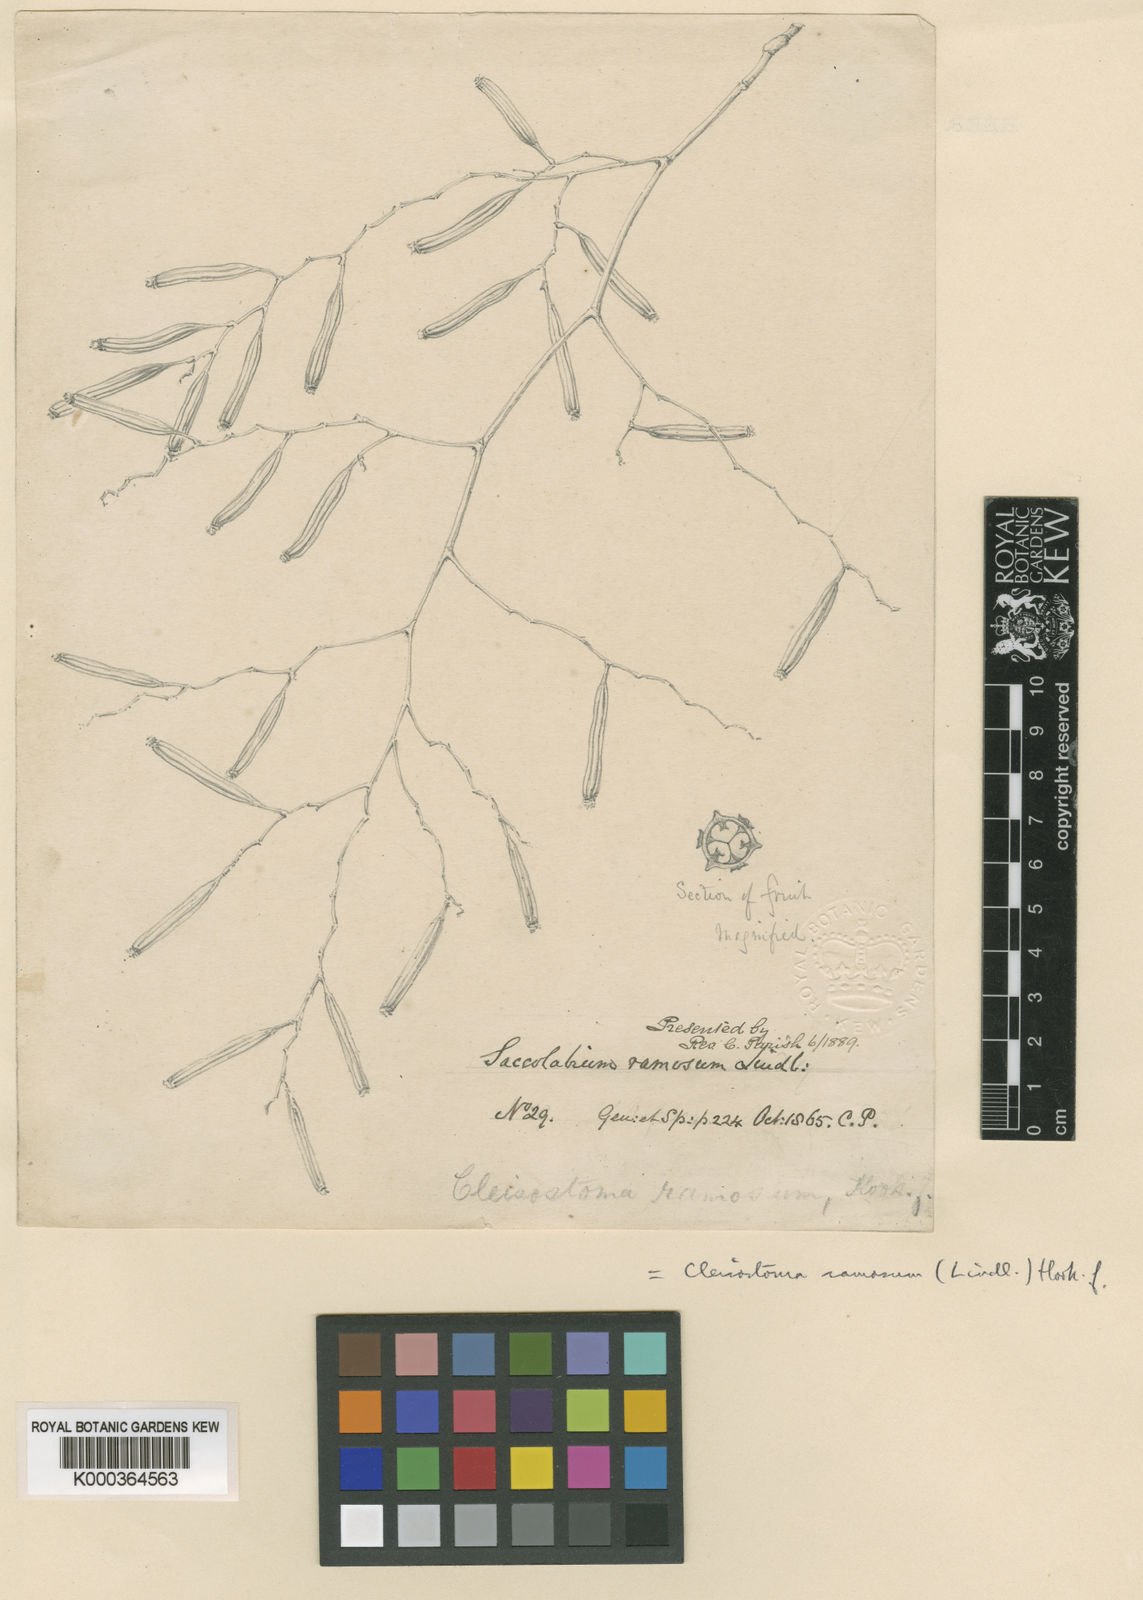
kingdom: Plantae
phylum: Tracheophyta
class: Liliopsida
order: Asparagales
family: Orchidaceae
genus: Trichoglottis
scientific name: Trichoglottis ramosa
